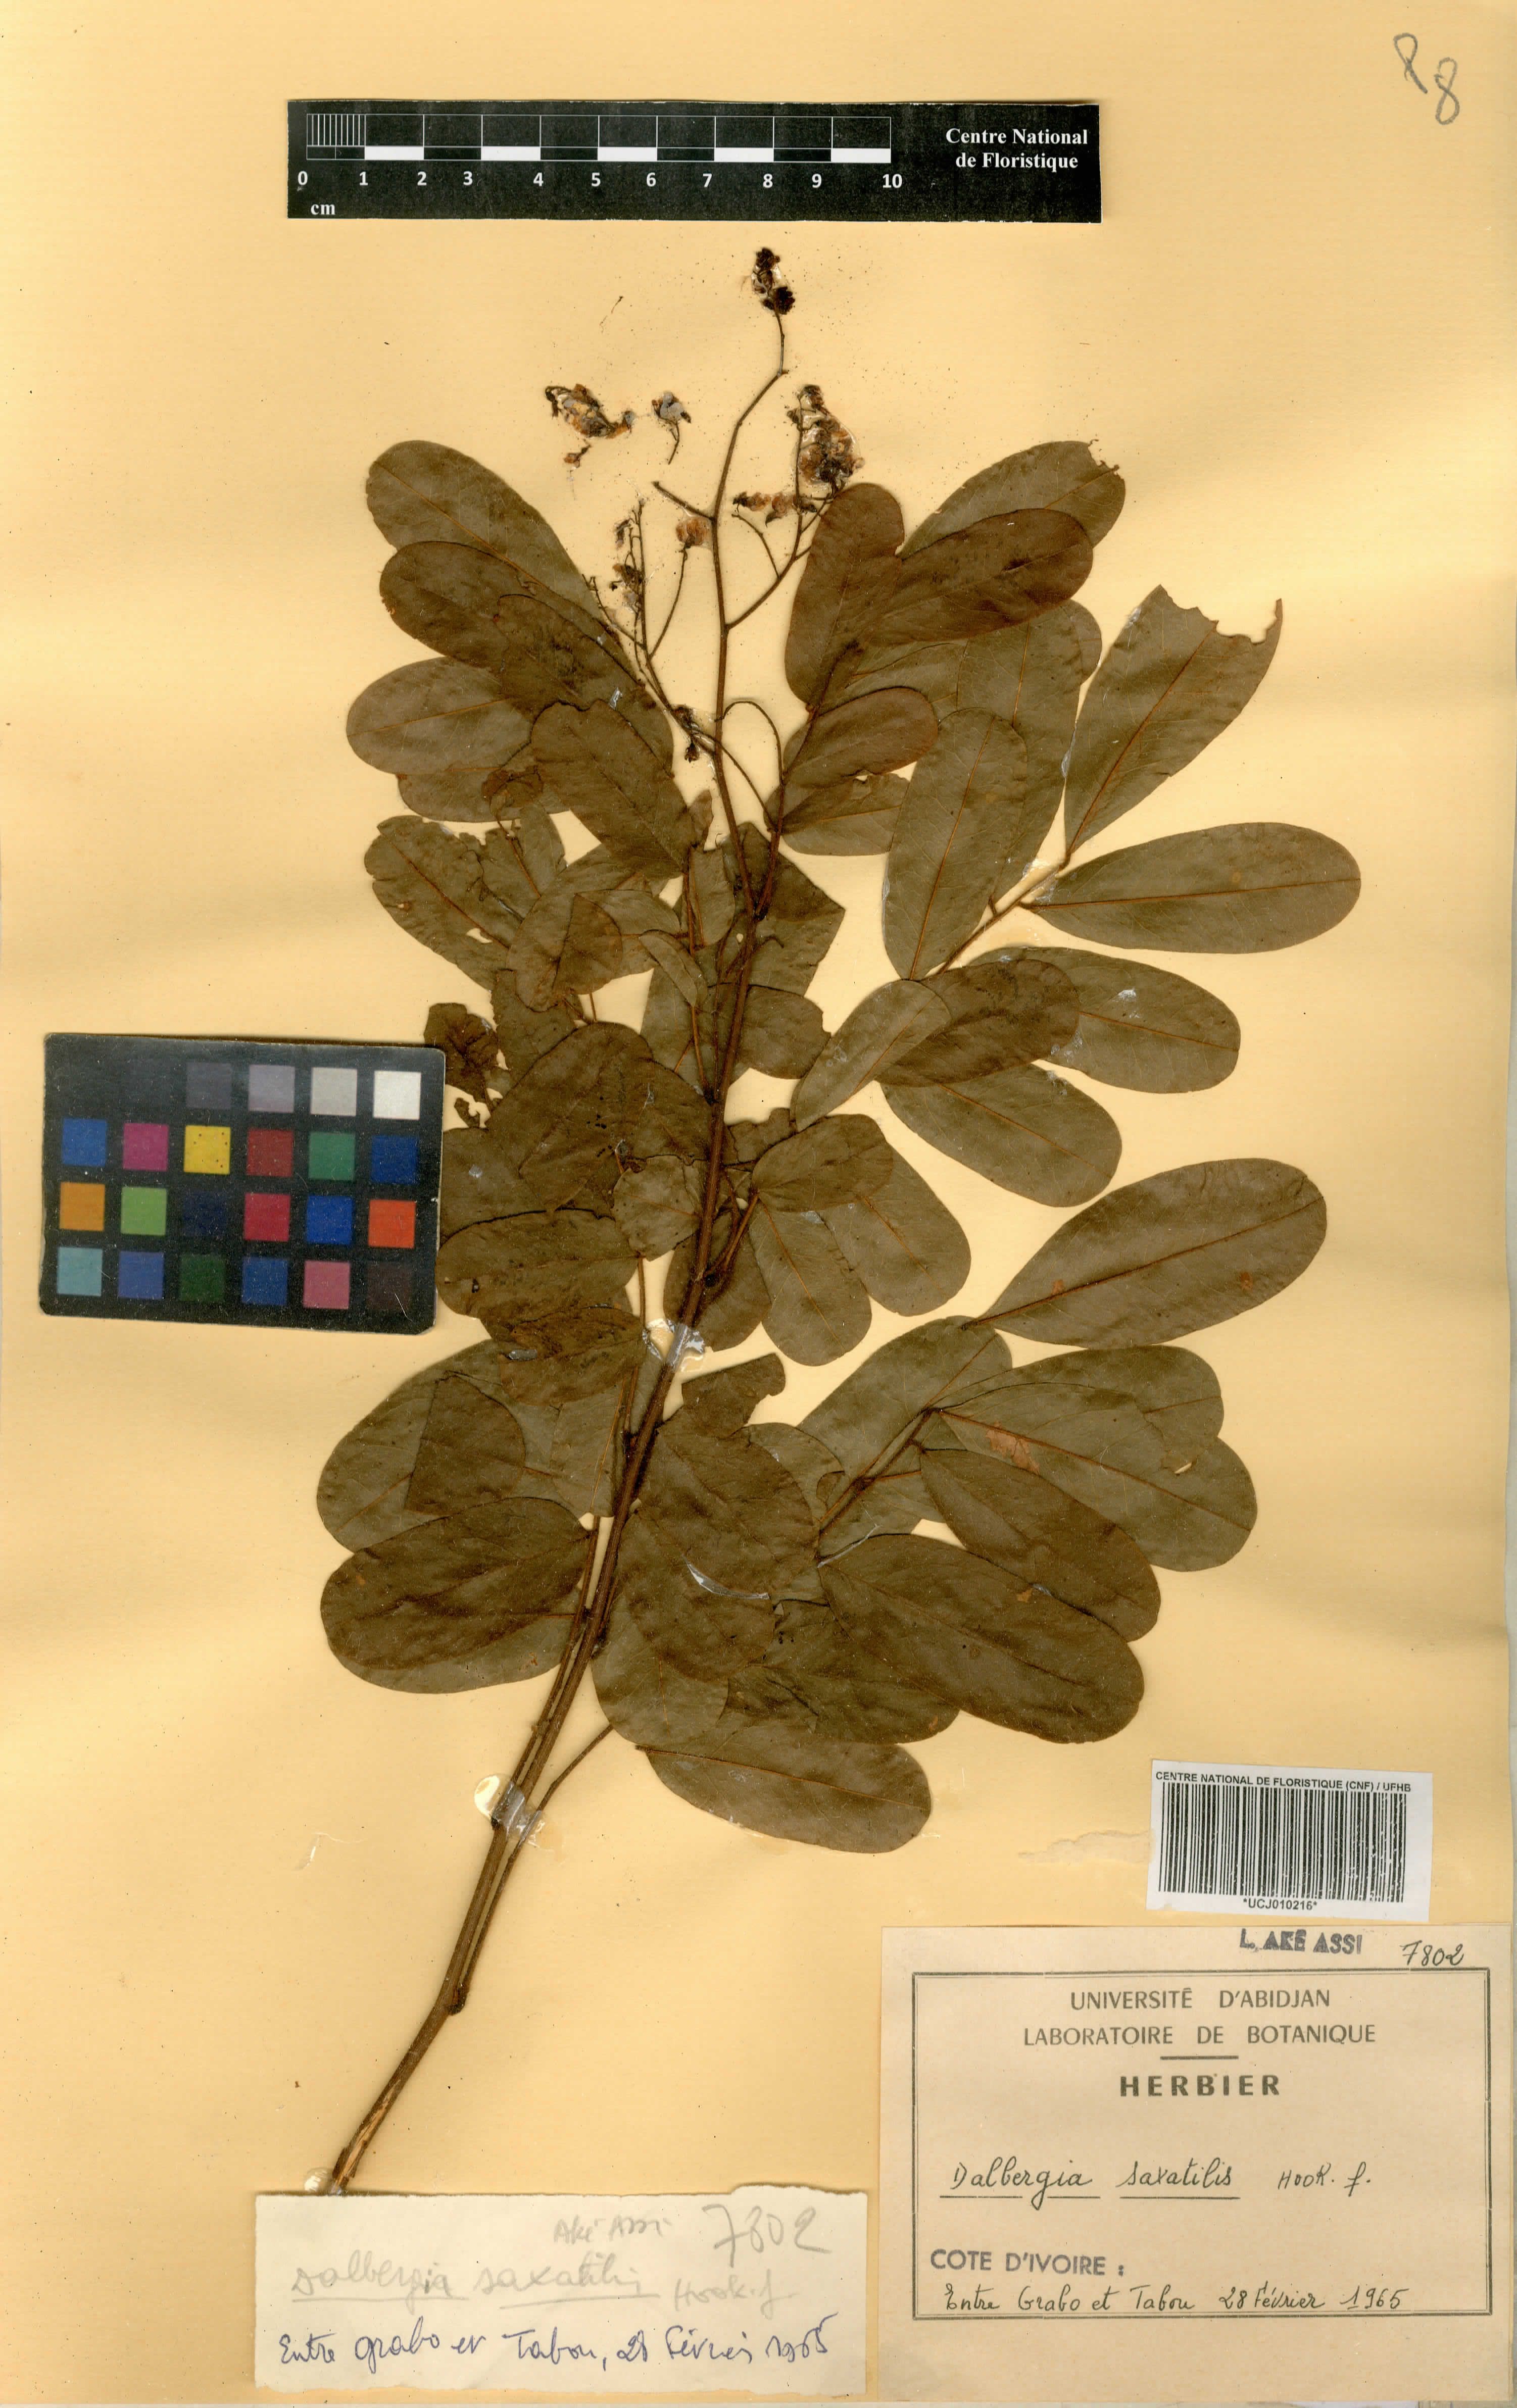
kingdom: Plantae
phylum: Tracheophyta
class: Magnoliopsida
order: Fabales
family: Fabaceae
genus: Dalbergia
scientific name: Dalbergia saxatilis
